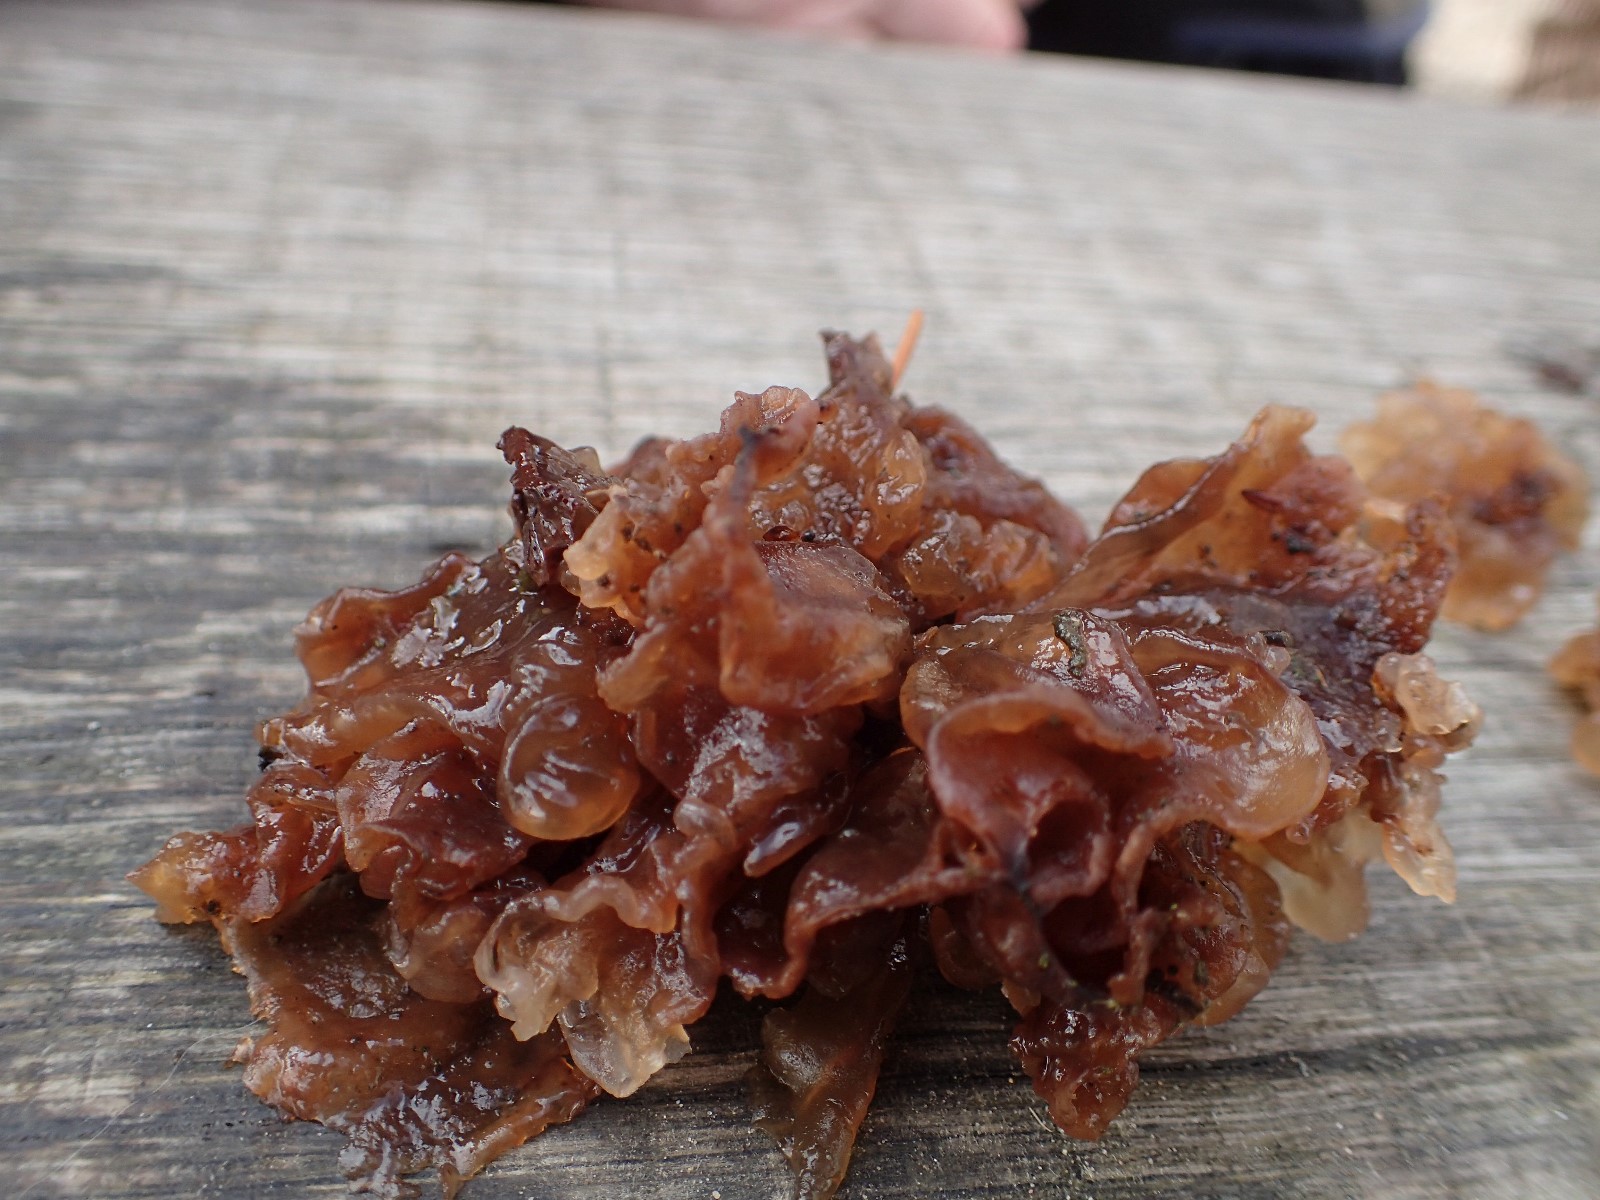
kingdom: Fungi
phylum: Basidiomycota
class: Tremellomycetes
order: Tremellales
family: Tremellaceae
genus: Phaeotremella
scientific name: Phaeotremella frondosa
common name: kæmpe-bævresvamp
